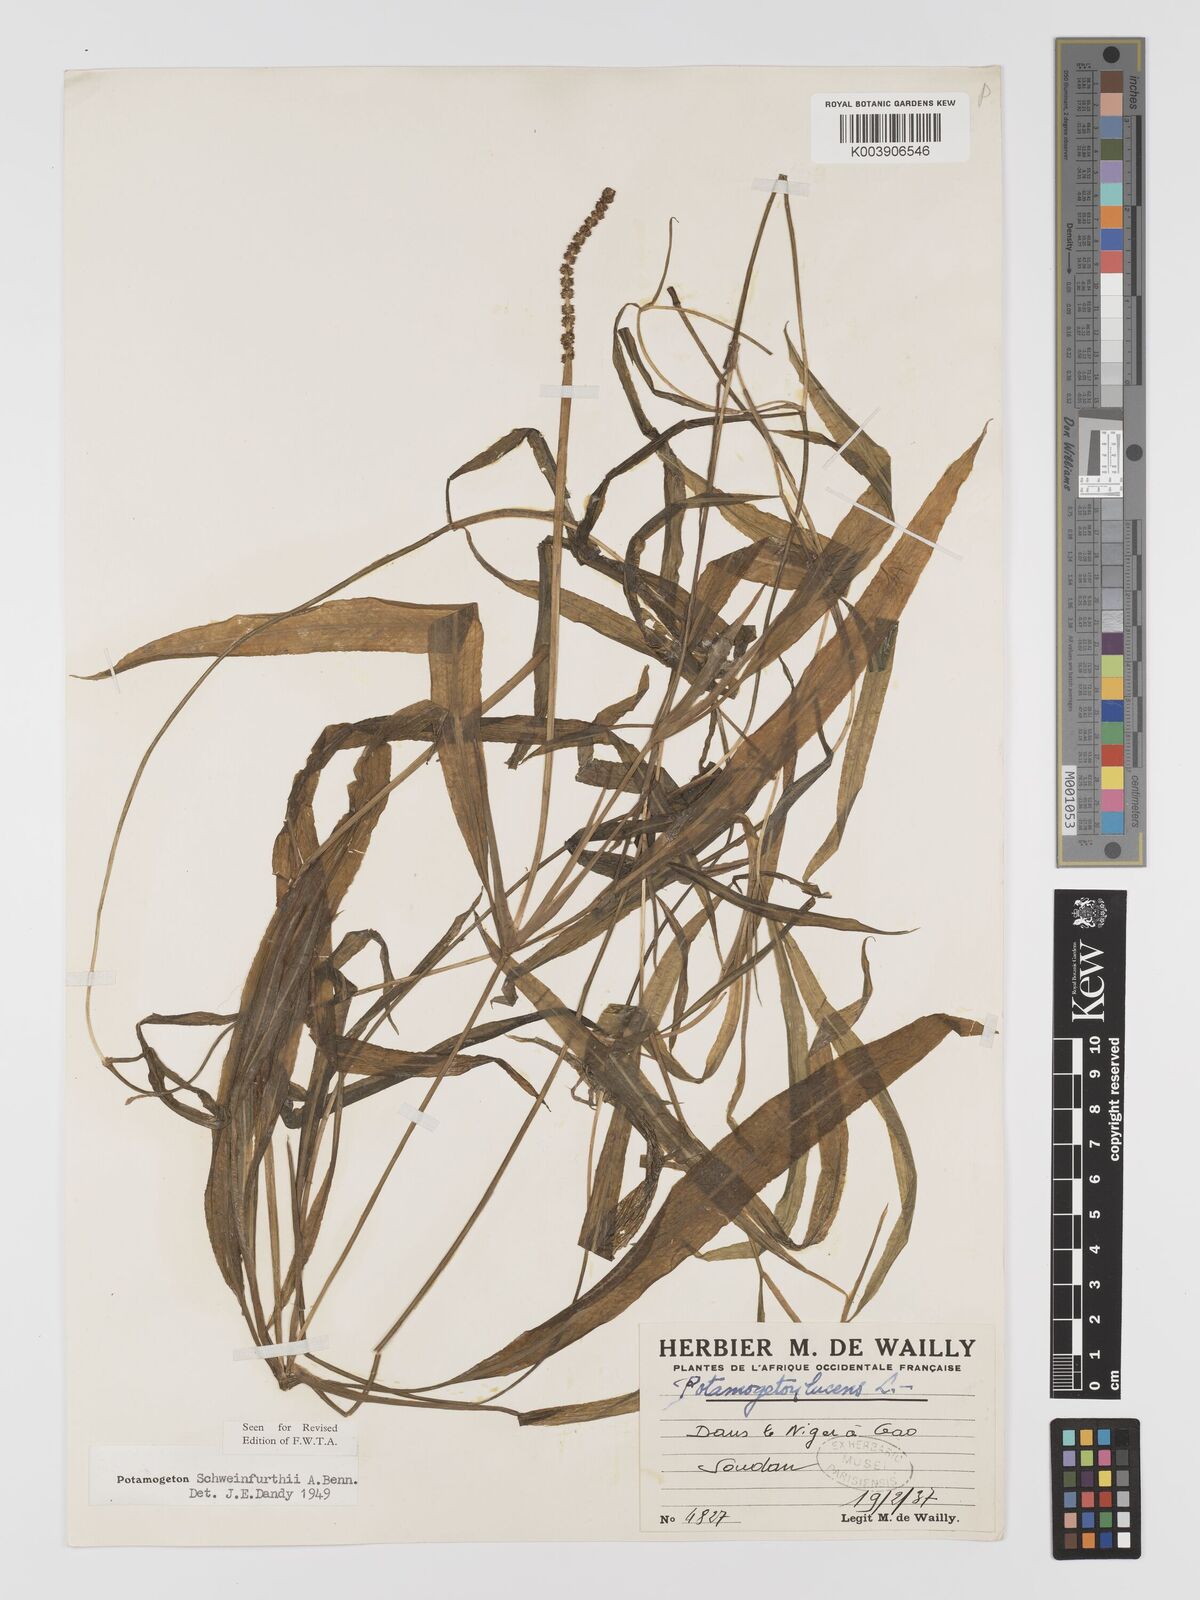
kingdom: Plantae
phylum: Tracheophyta
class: Liliopsida
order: Alismatales
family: Potamogetonaceae
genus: Potamogeton
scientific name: Potamogeton schweinfurthii
